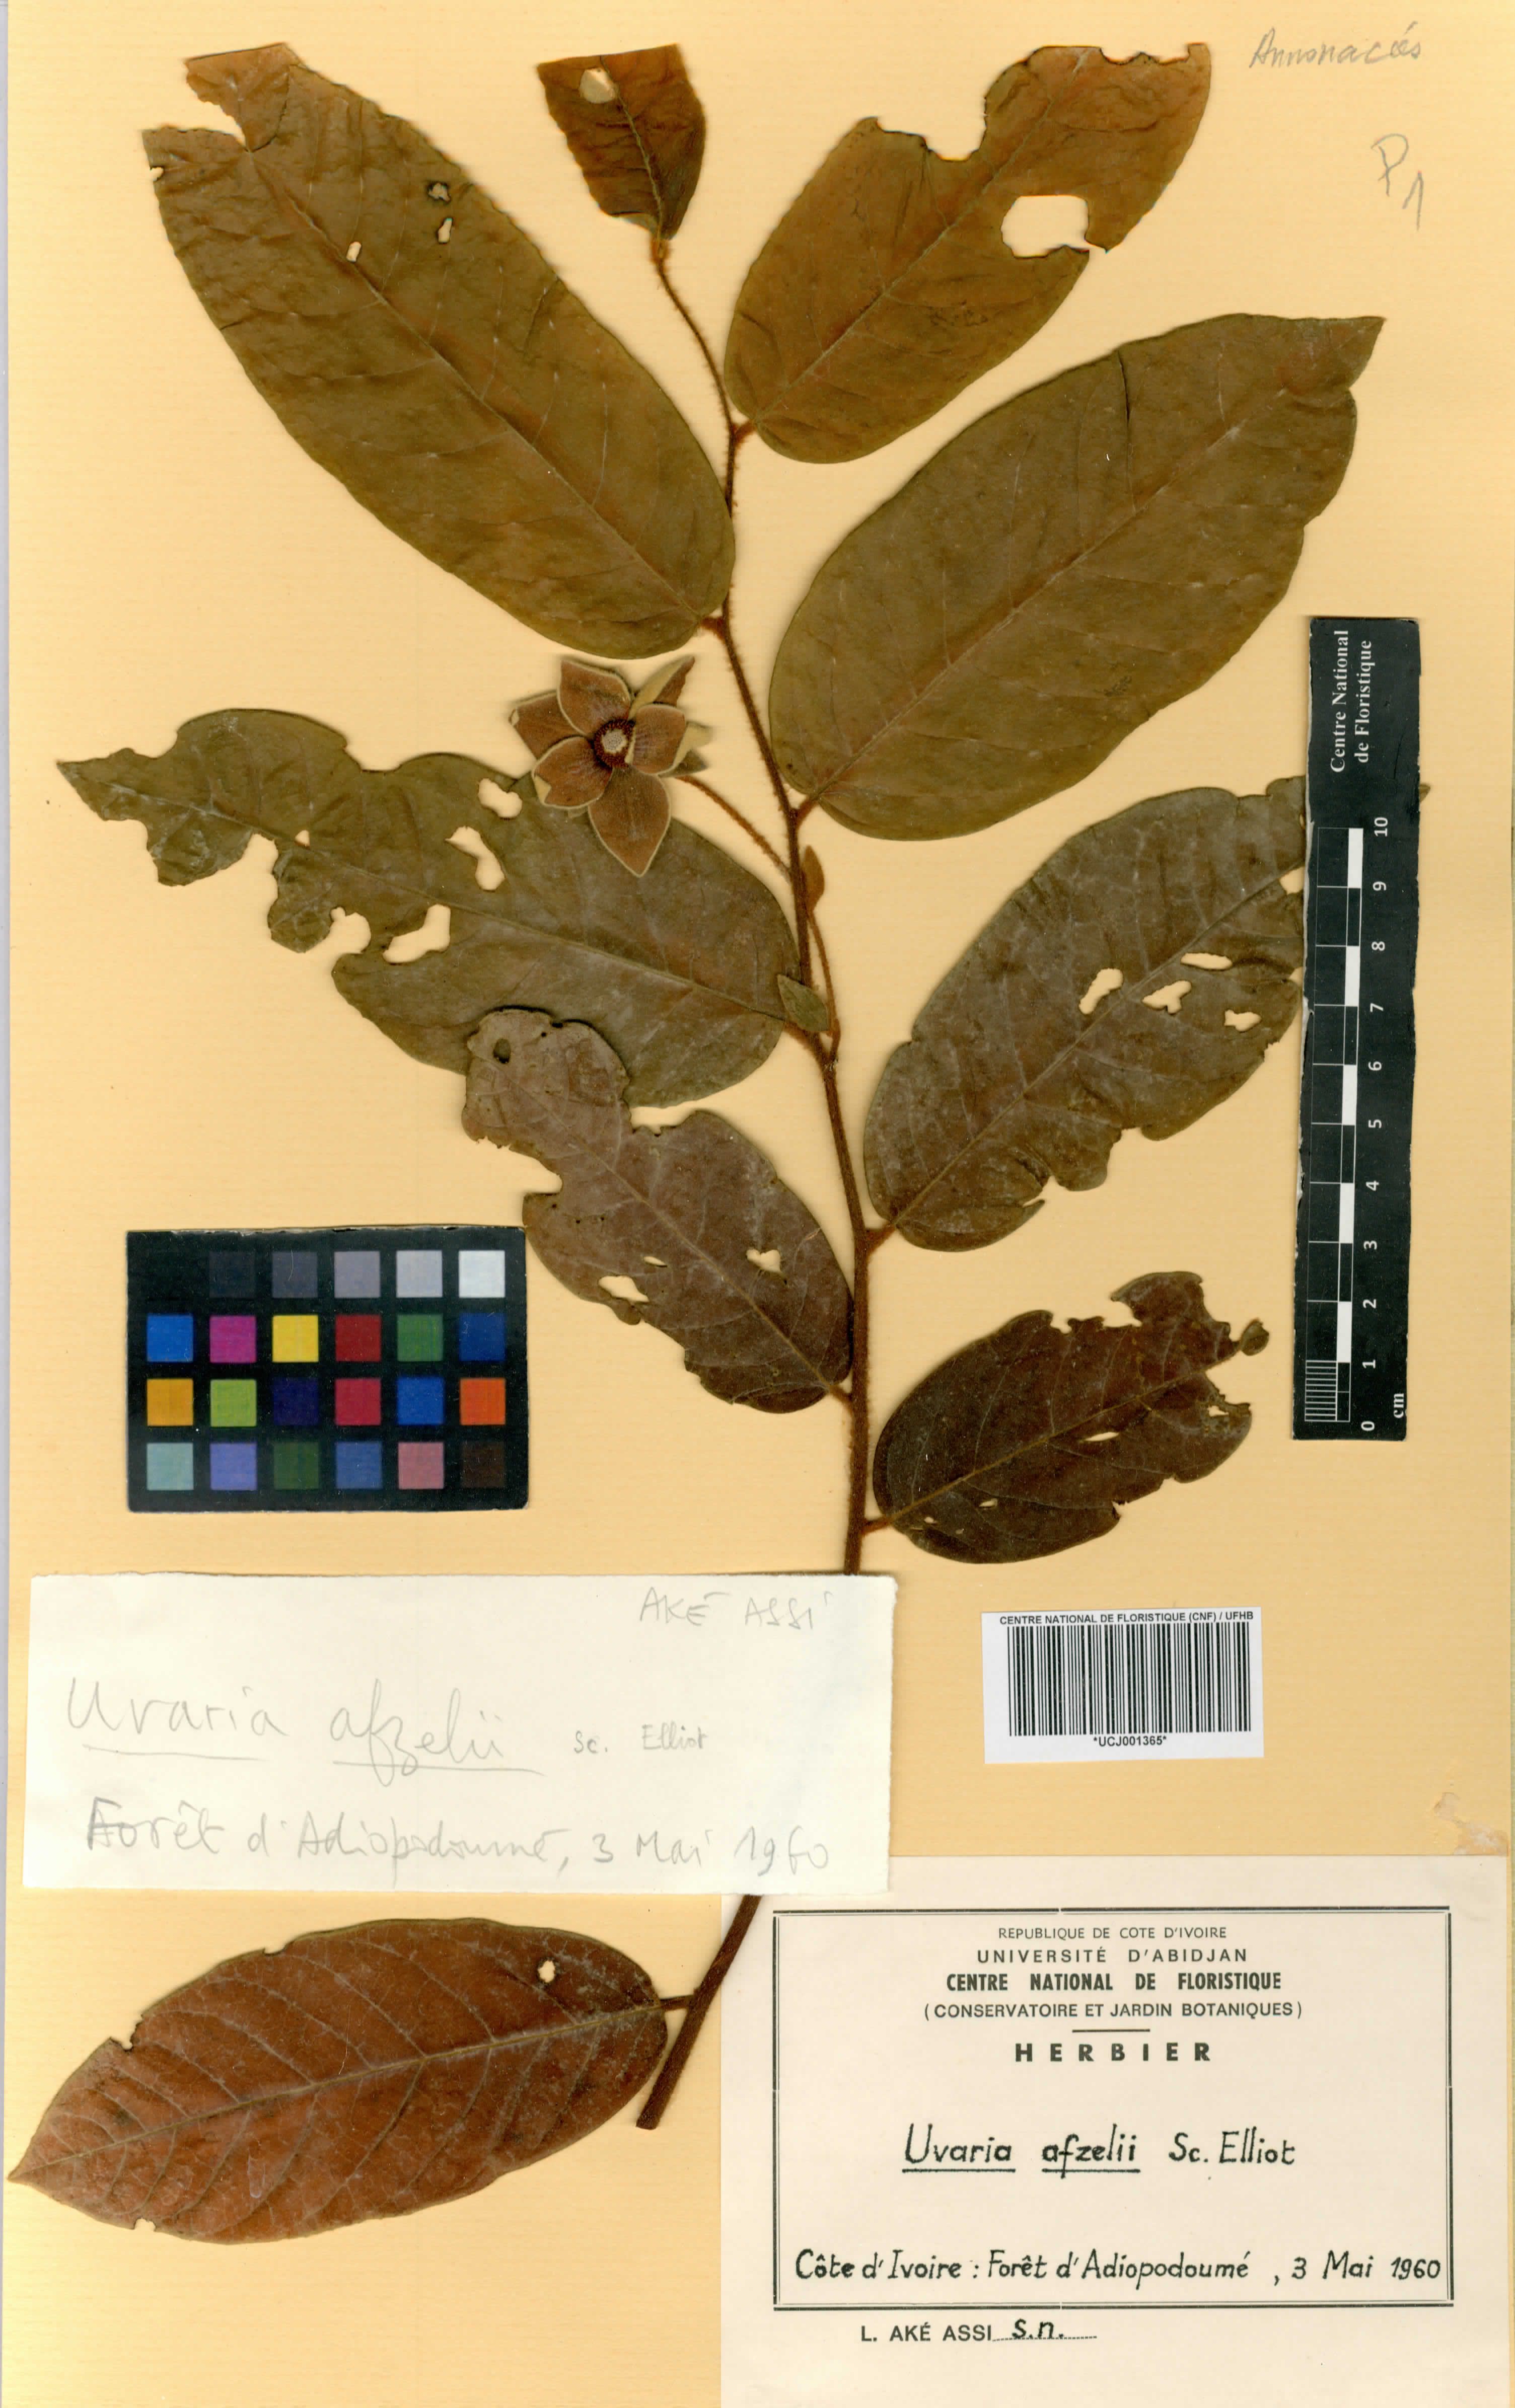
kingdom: Plantae
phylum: Tracheophyta
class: Magnoliopsida
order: Magnoliales
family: Annonaceae
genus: Uvaria
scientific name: Uvaria afzelii
